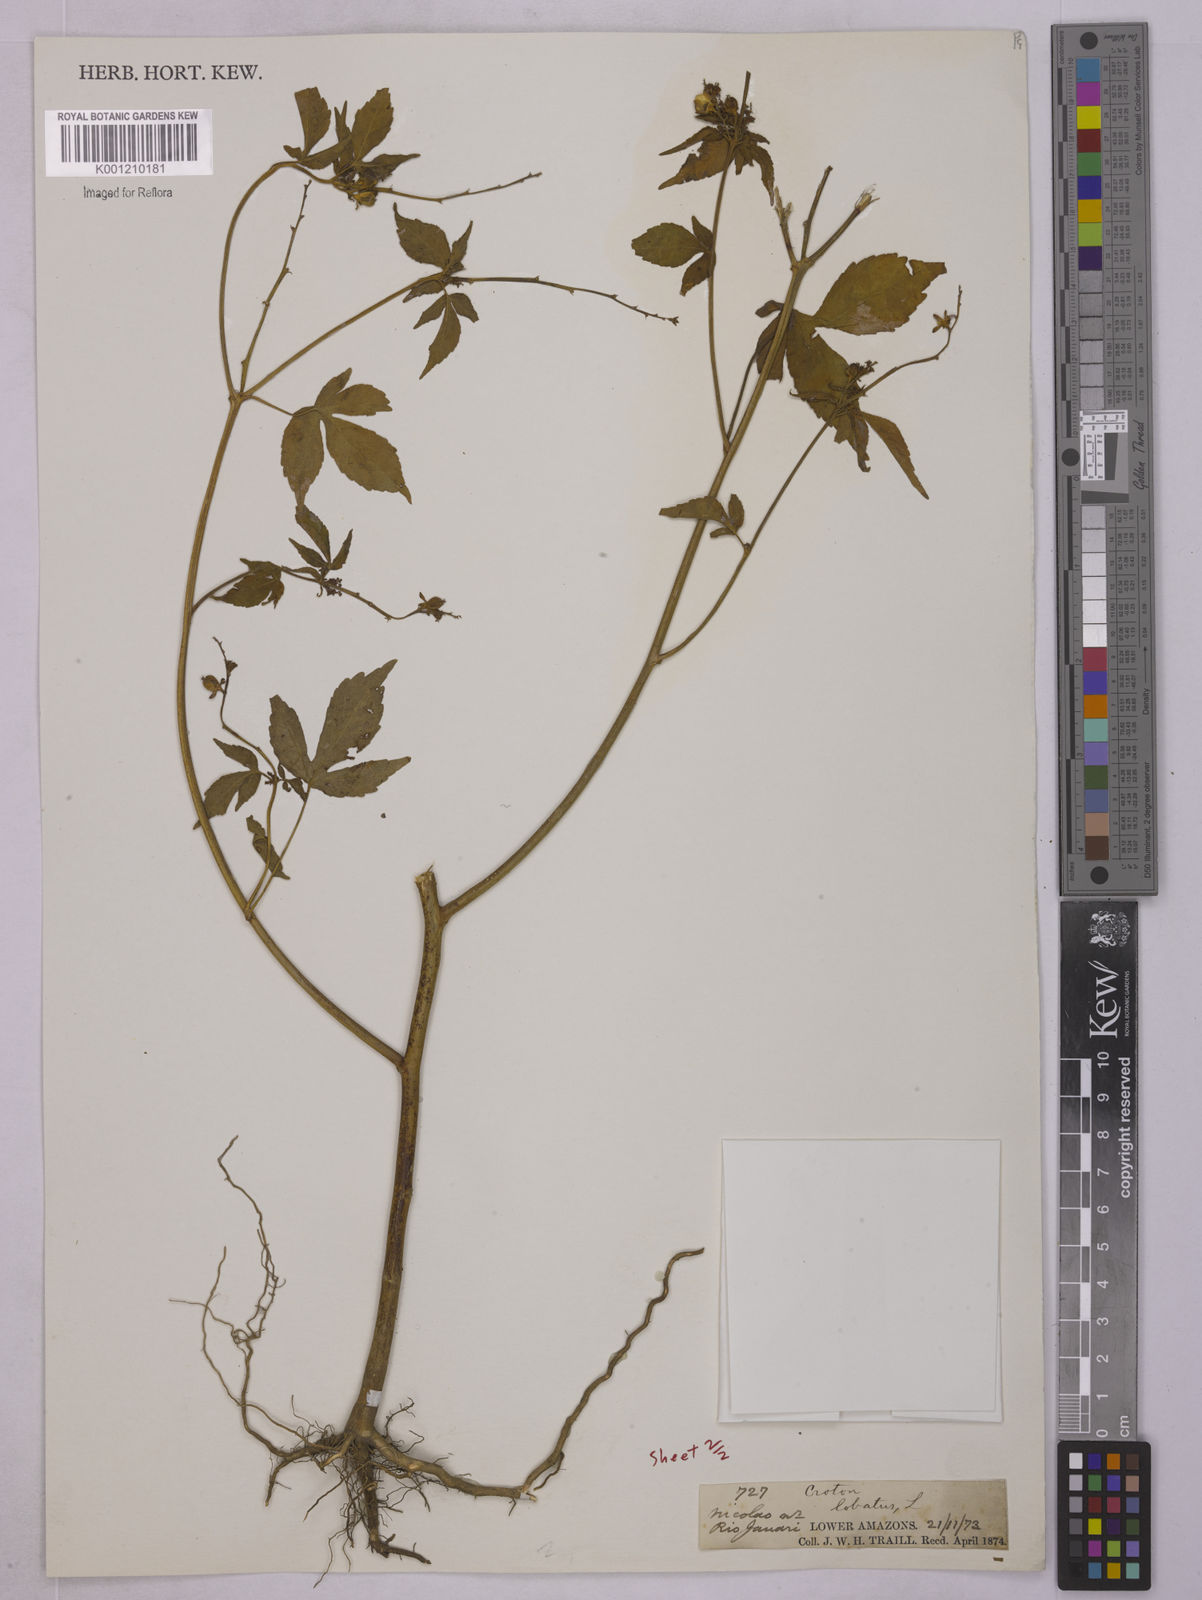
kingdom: Plantae
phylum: Tracheophyta
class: Magnoliopsida
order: Malpighiales
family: Euphorbiaceae
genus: Astraea
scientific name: Astraea lobata
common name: Lobed croton
